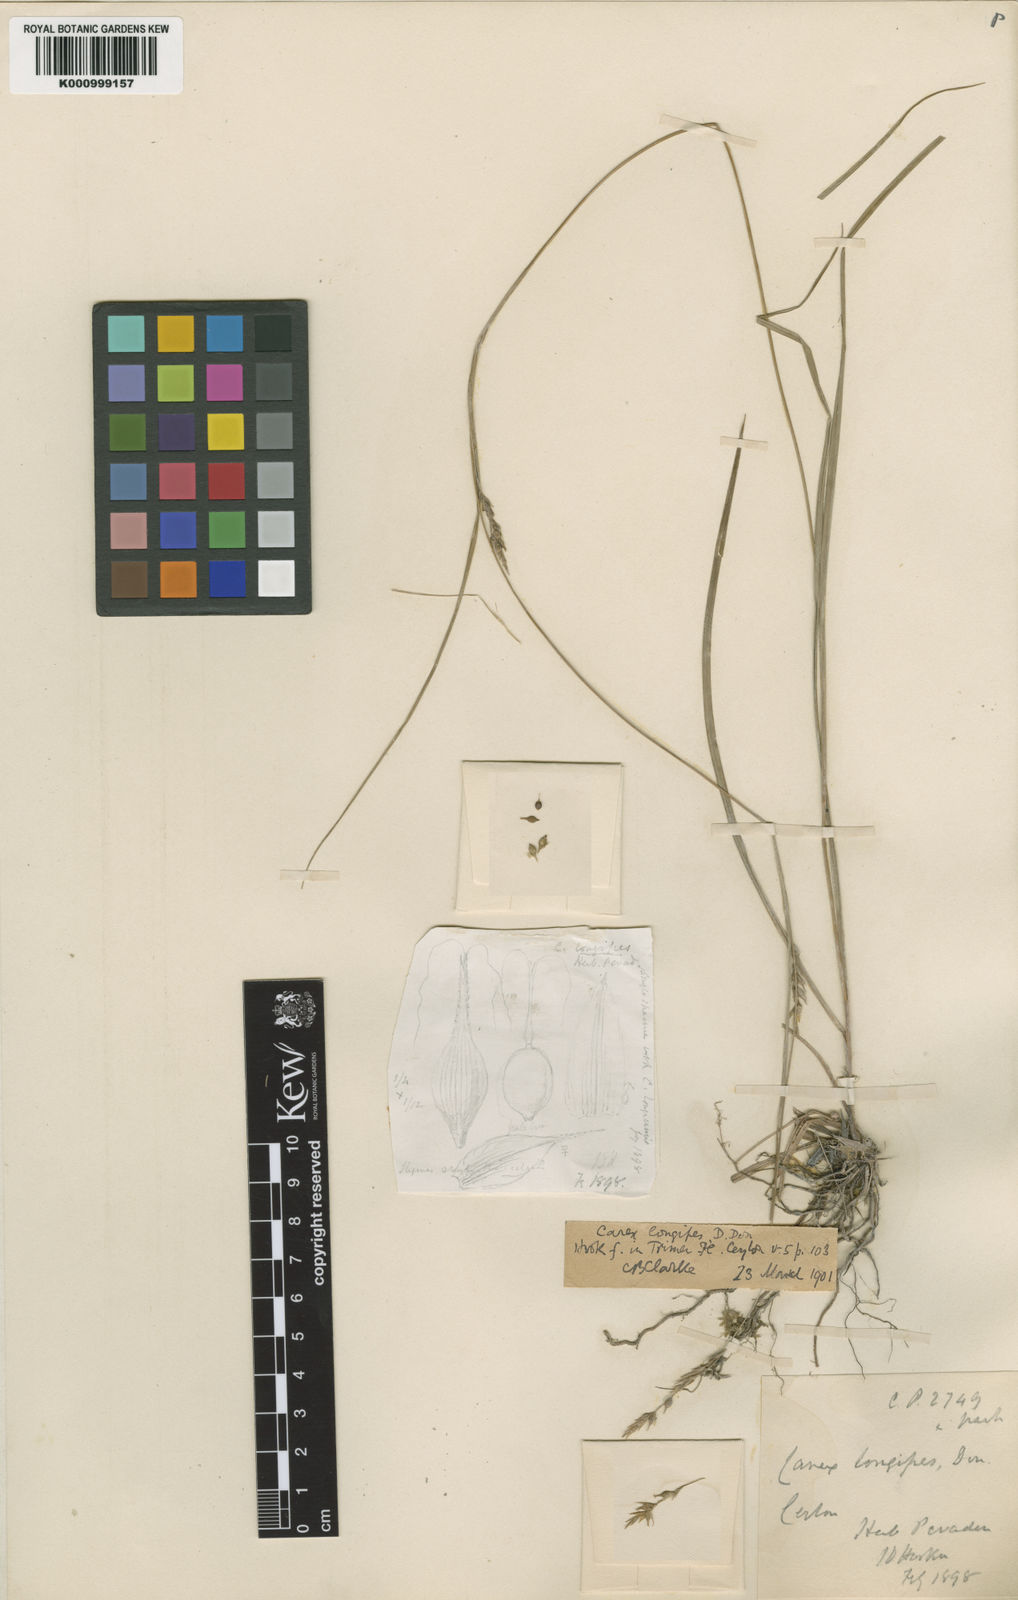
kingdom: Plantae
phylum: Tracheophyta
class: Liliopsida
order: Poales
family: Cyperaceae
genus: Carex
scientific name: Carex longipes
